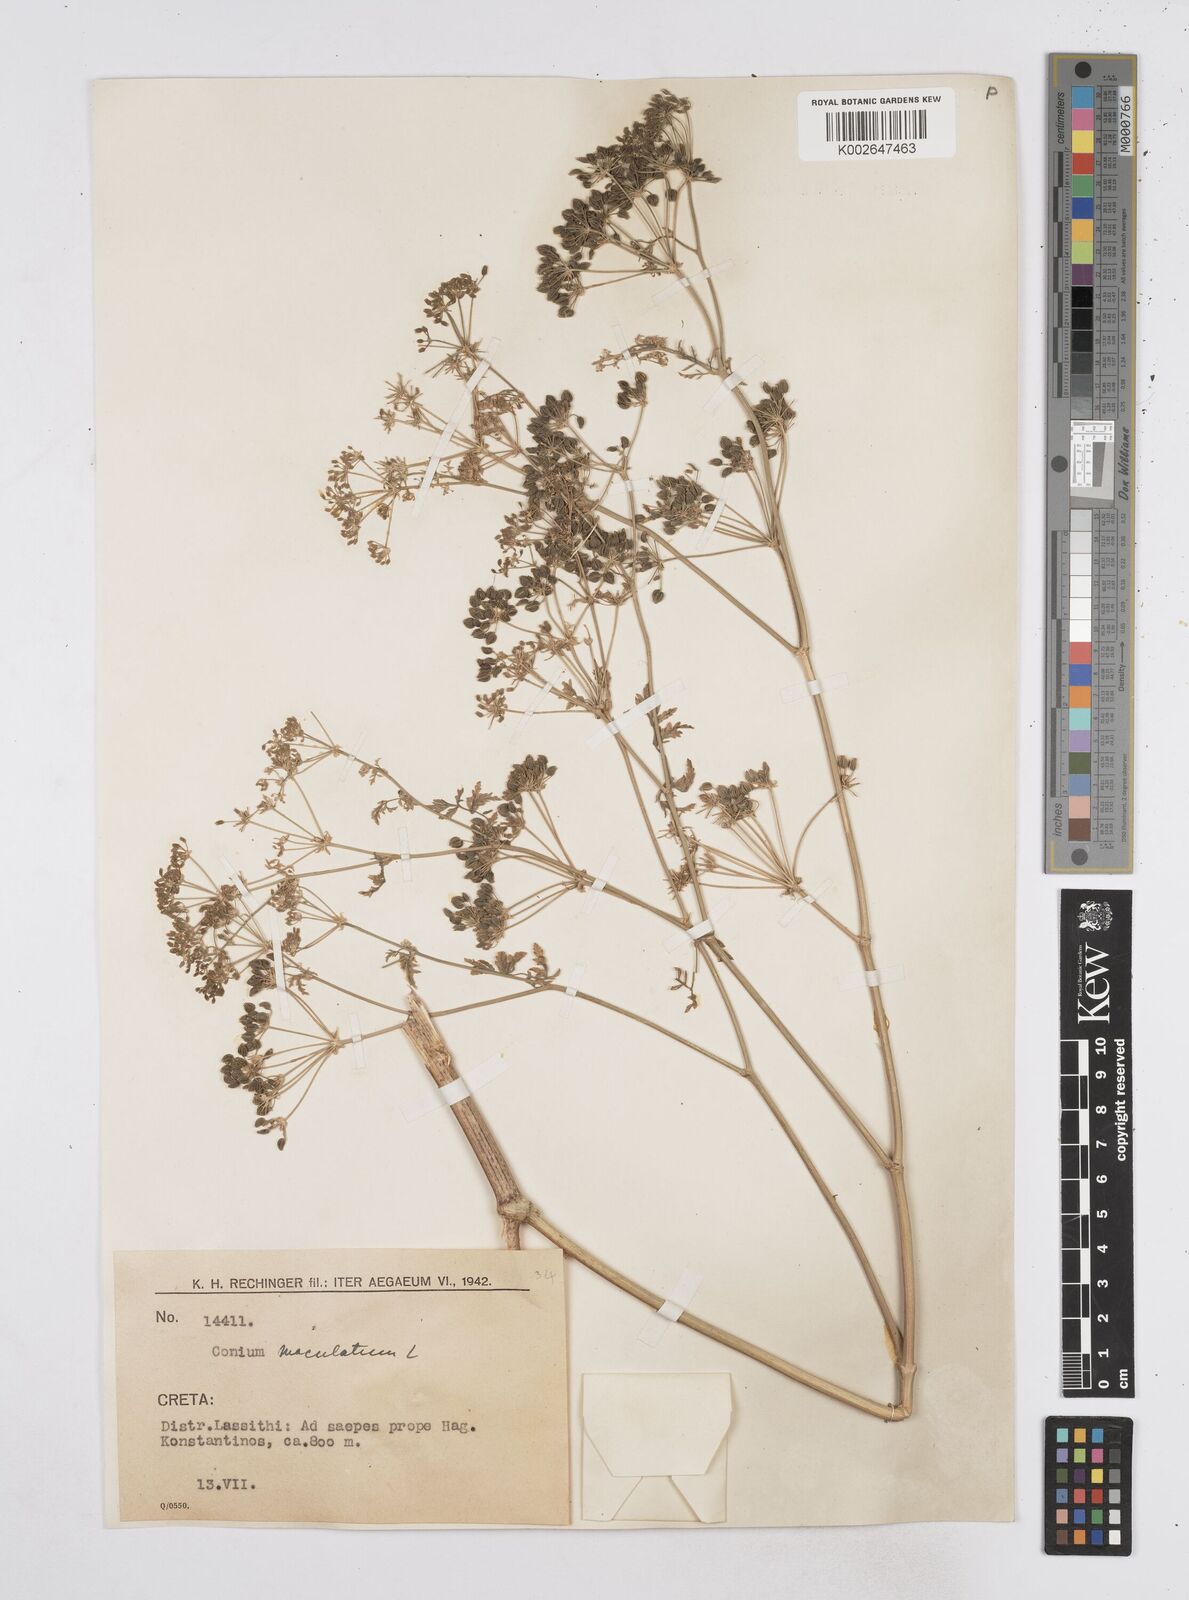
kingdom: Plantae
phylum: Tracheophyta
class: Magnoliopsida
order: Apiales
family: Apiaceae
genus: Conium
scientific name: Conium maculatum
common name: Hemlock
